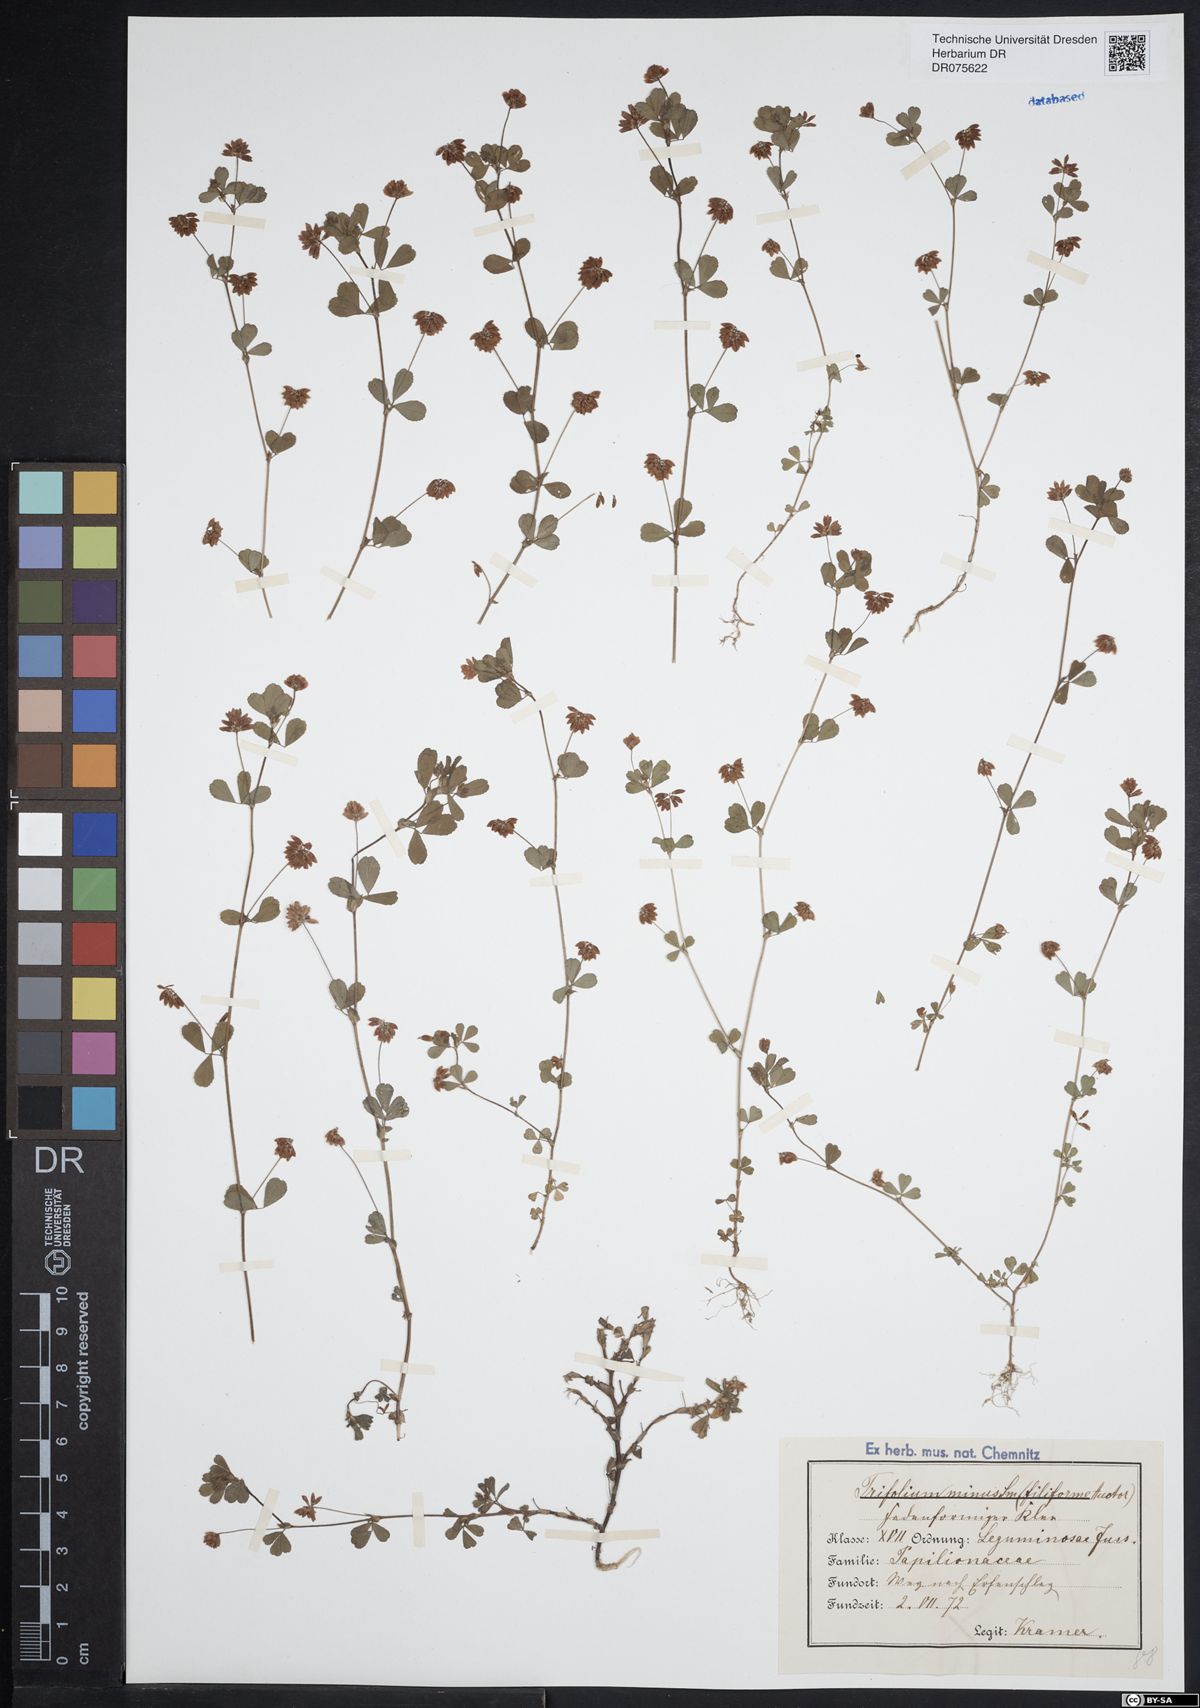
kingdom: Plantae
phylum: Tracheophyta
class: Magnoliopsida
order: Fabales
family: Fabaceae
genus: Trifolium
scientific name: Trifolium dubium
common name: Suckling clover
